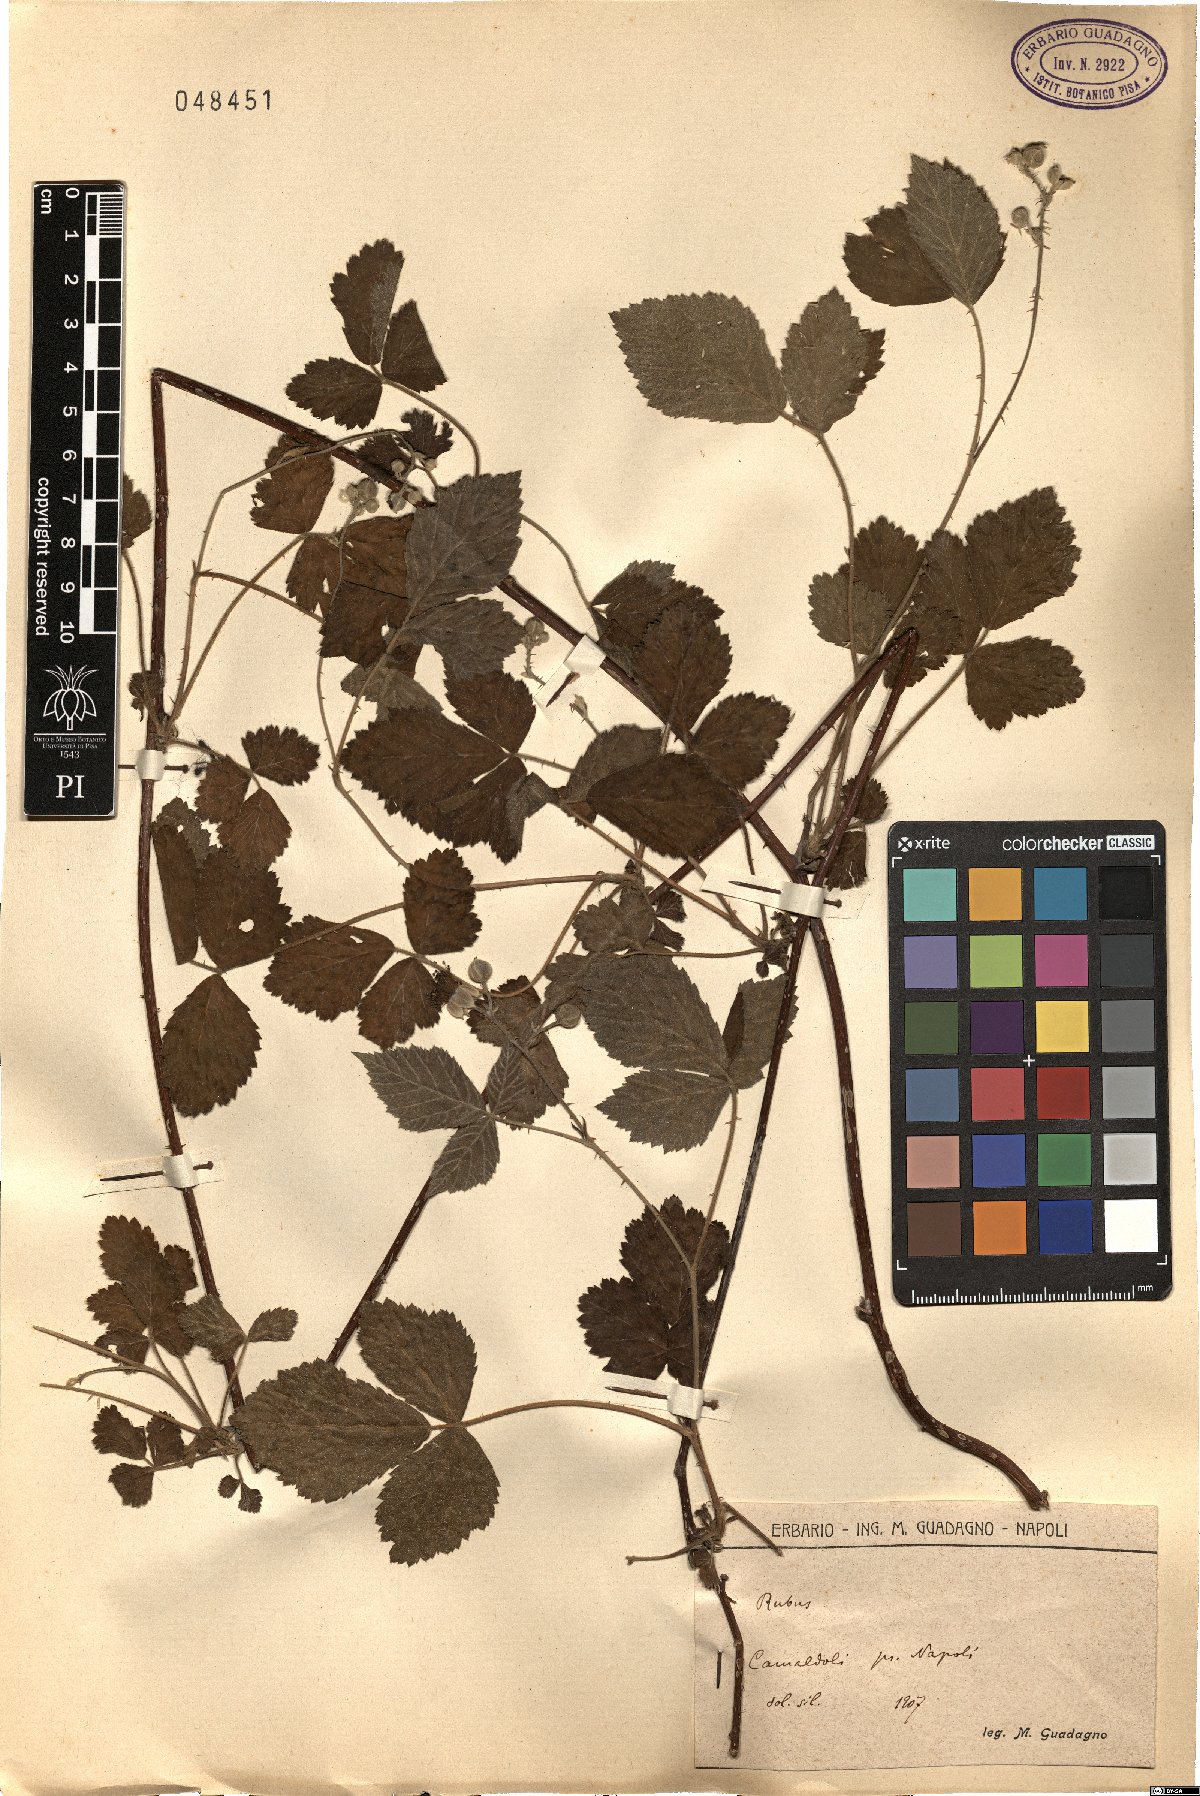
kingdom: Plantae
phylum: Tracheophyta
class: Magnoliopsida
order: Rosales
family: Rosaceae
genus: Rubus
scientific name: Rubus
